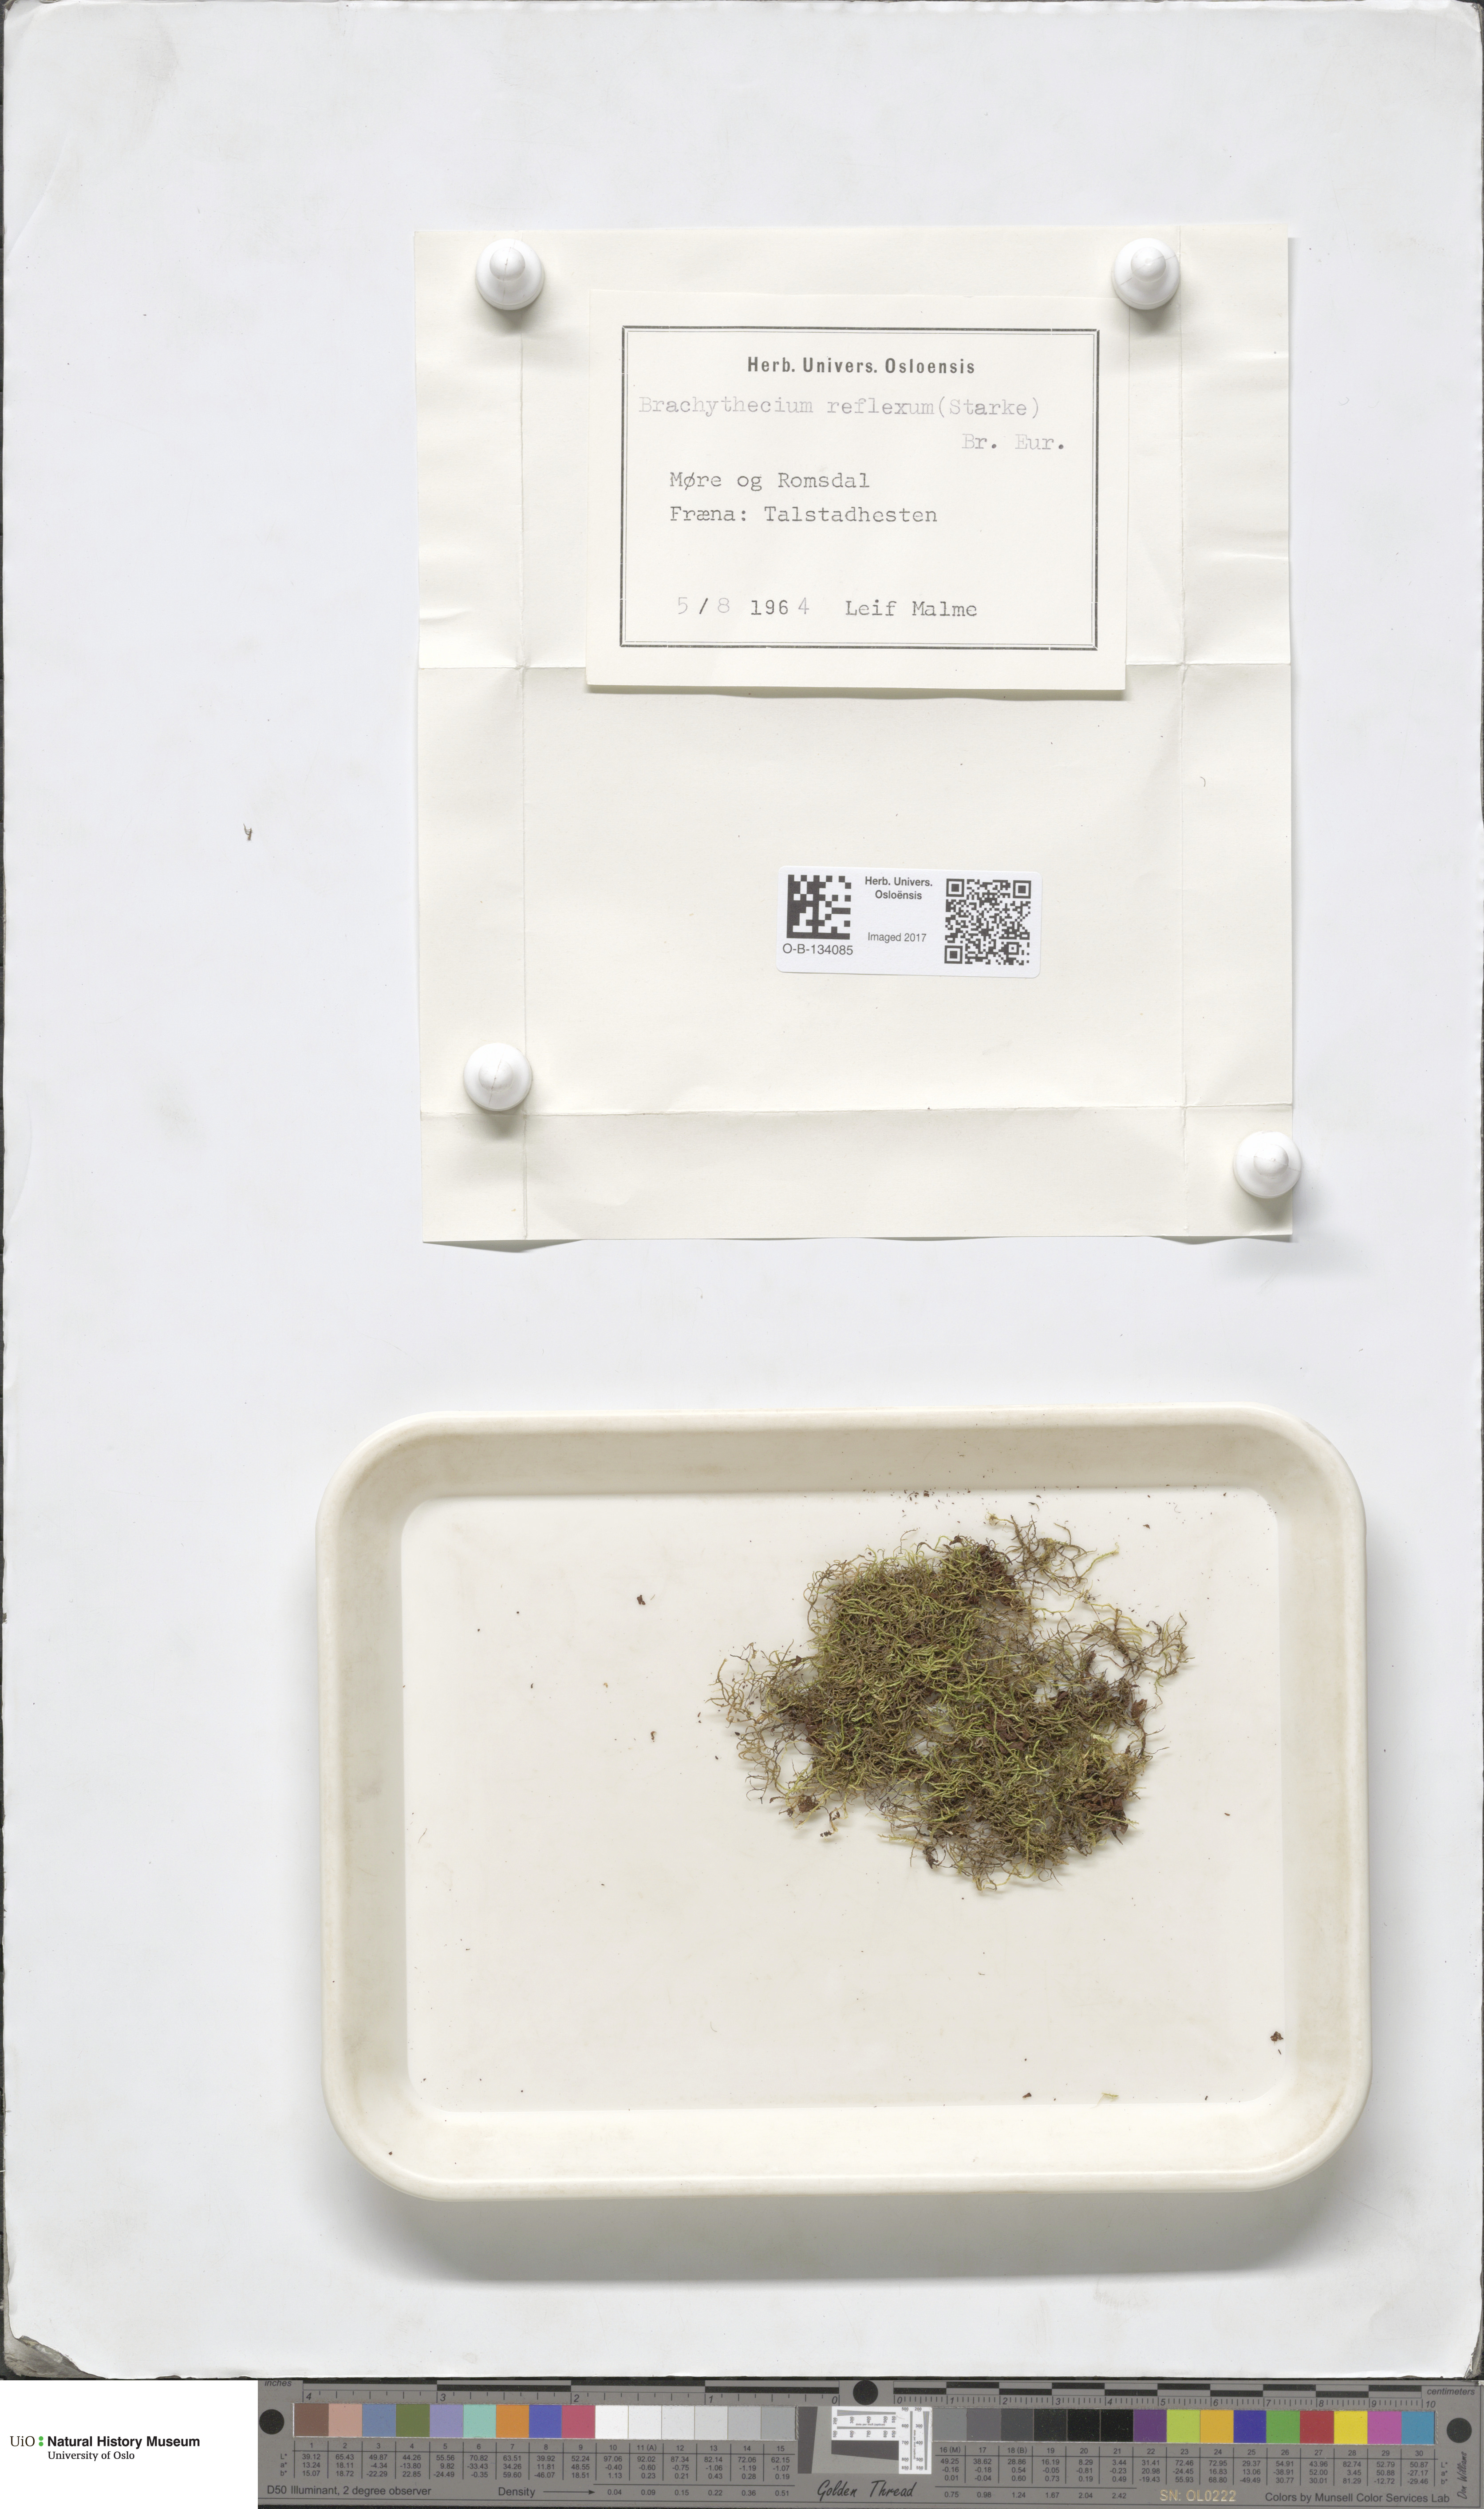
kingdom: Plantae
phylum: Bryophyta
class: Bryopsida
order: Hypnales
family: Brachytheciaceae
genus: Sciuro-hypnum
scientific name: Sciuro-hypnum reflexum
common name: Reflexed feather-moss
